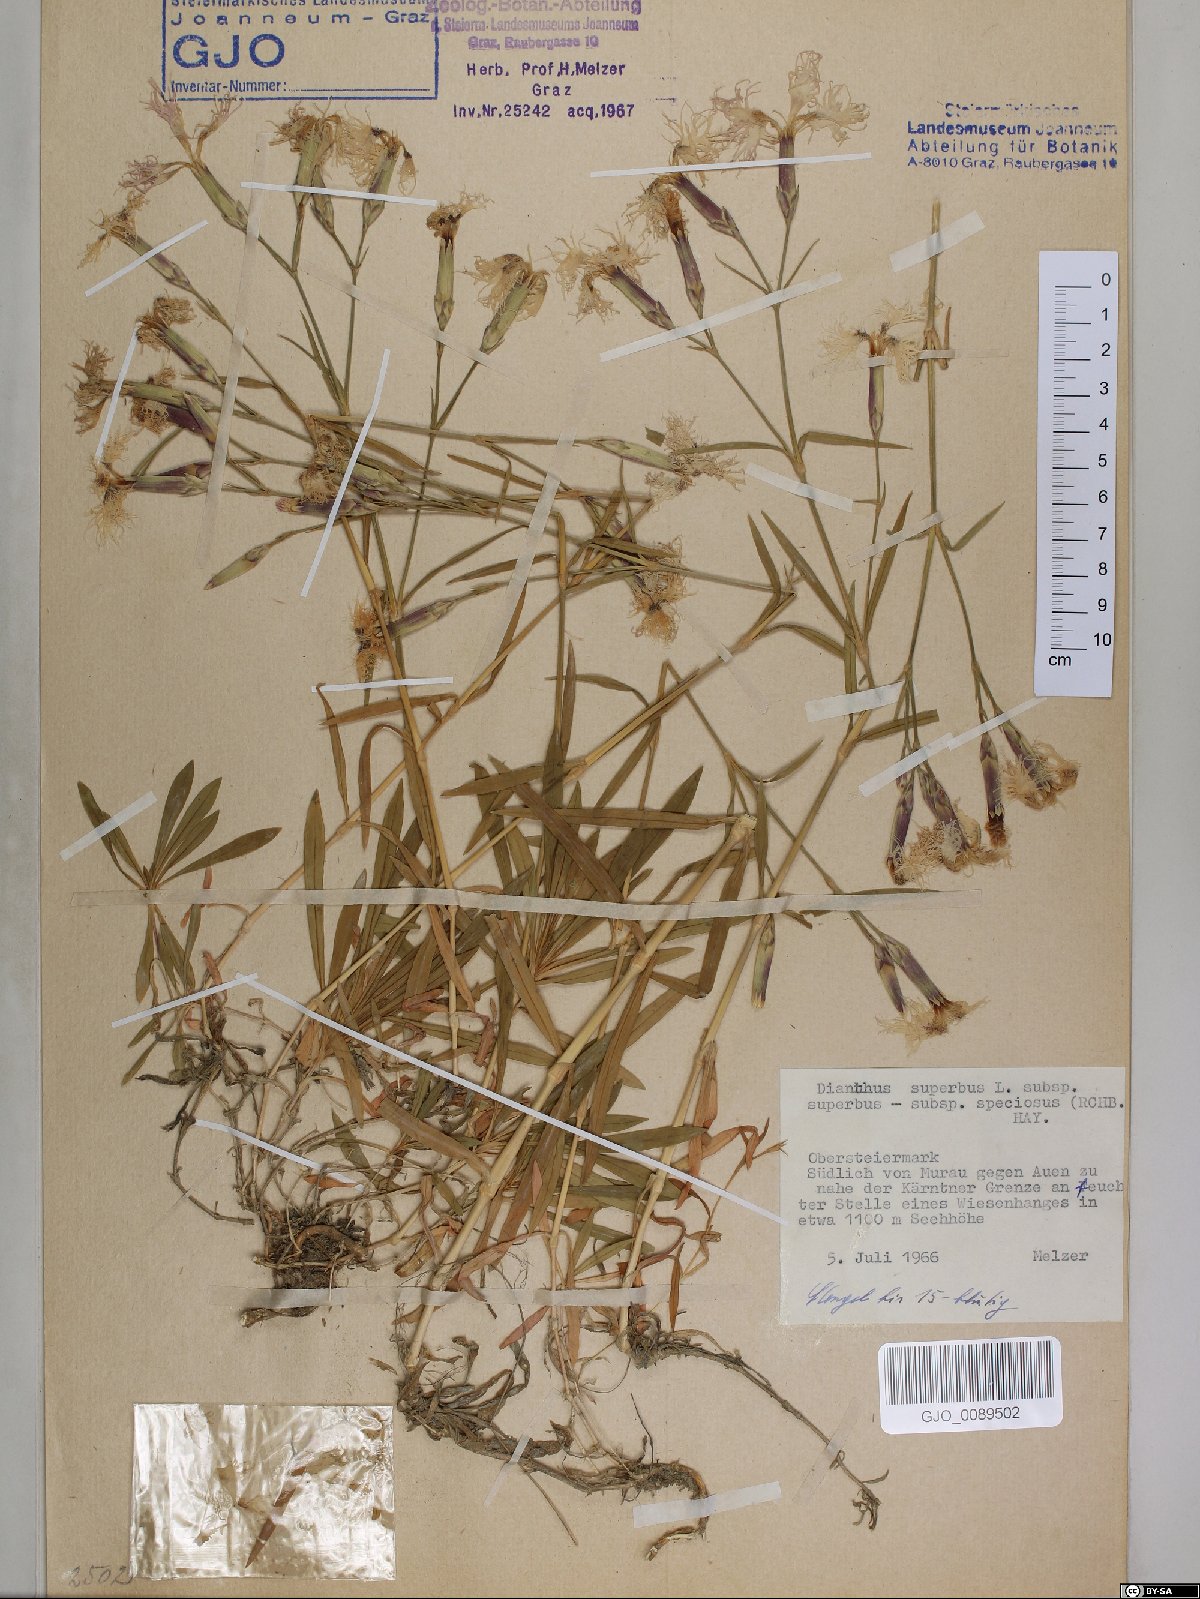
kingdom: Plantae
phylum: Tracheophyta
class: Magnoliopsida
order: Caryophyllales
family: Caryophyllaceae
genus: Dianthus
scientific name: Dianthus superbus
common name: Fringed pink
